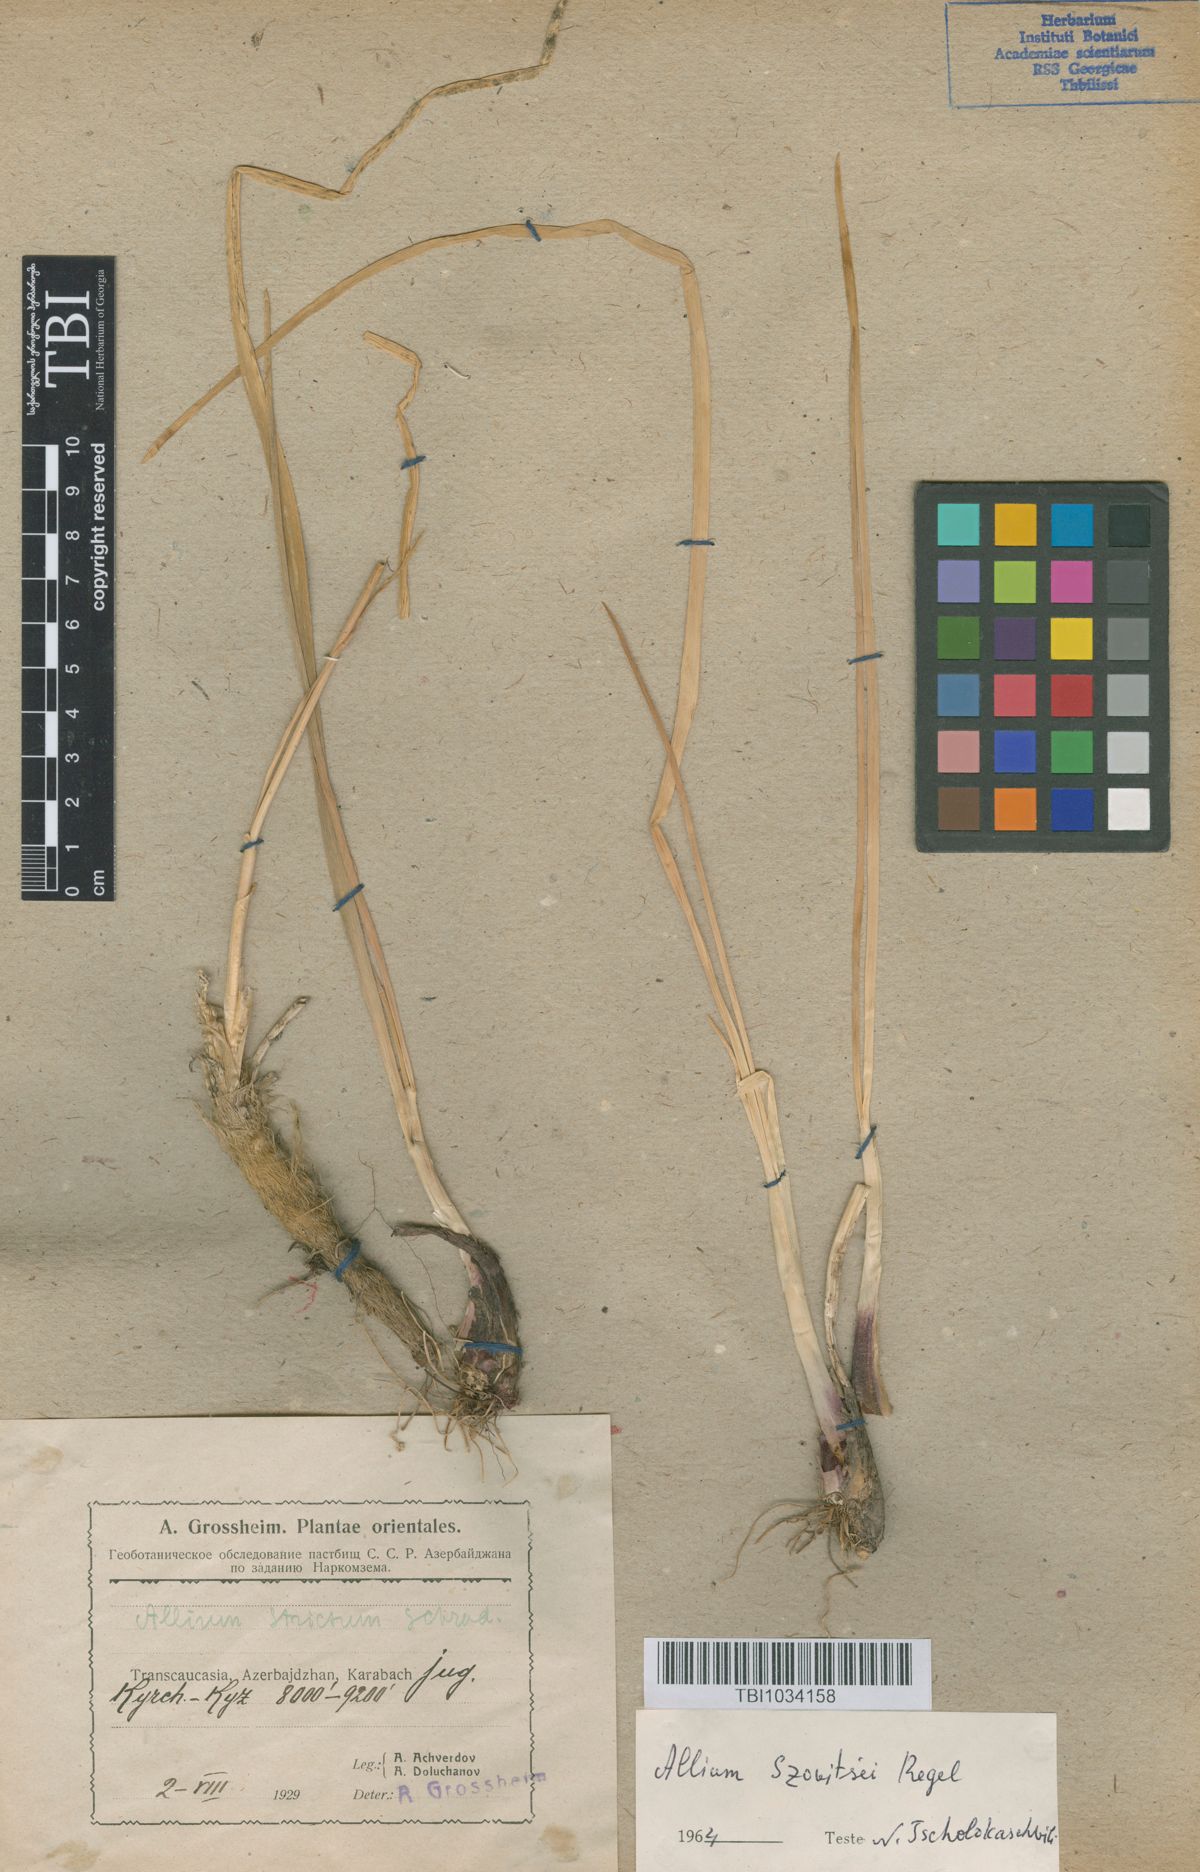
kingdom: Plantae
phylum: Tracheophyta
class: Liliopsida
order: Asparagales
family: Amaryllidaceae
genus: Allium
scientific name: Allium szovitsii
